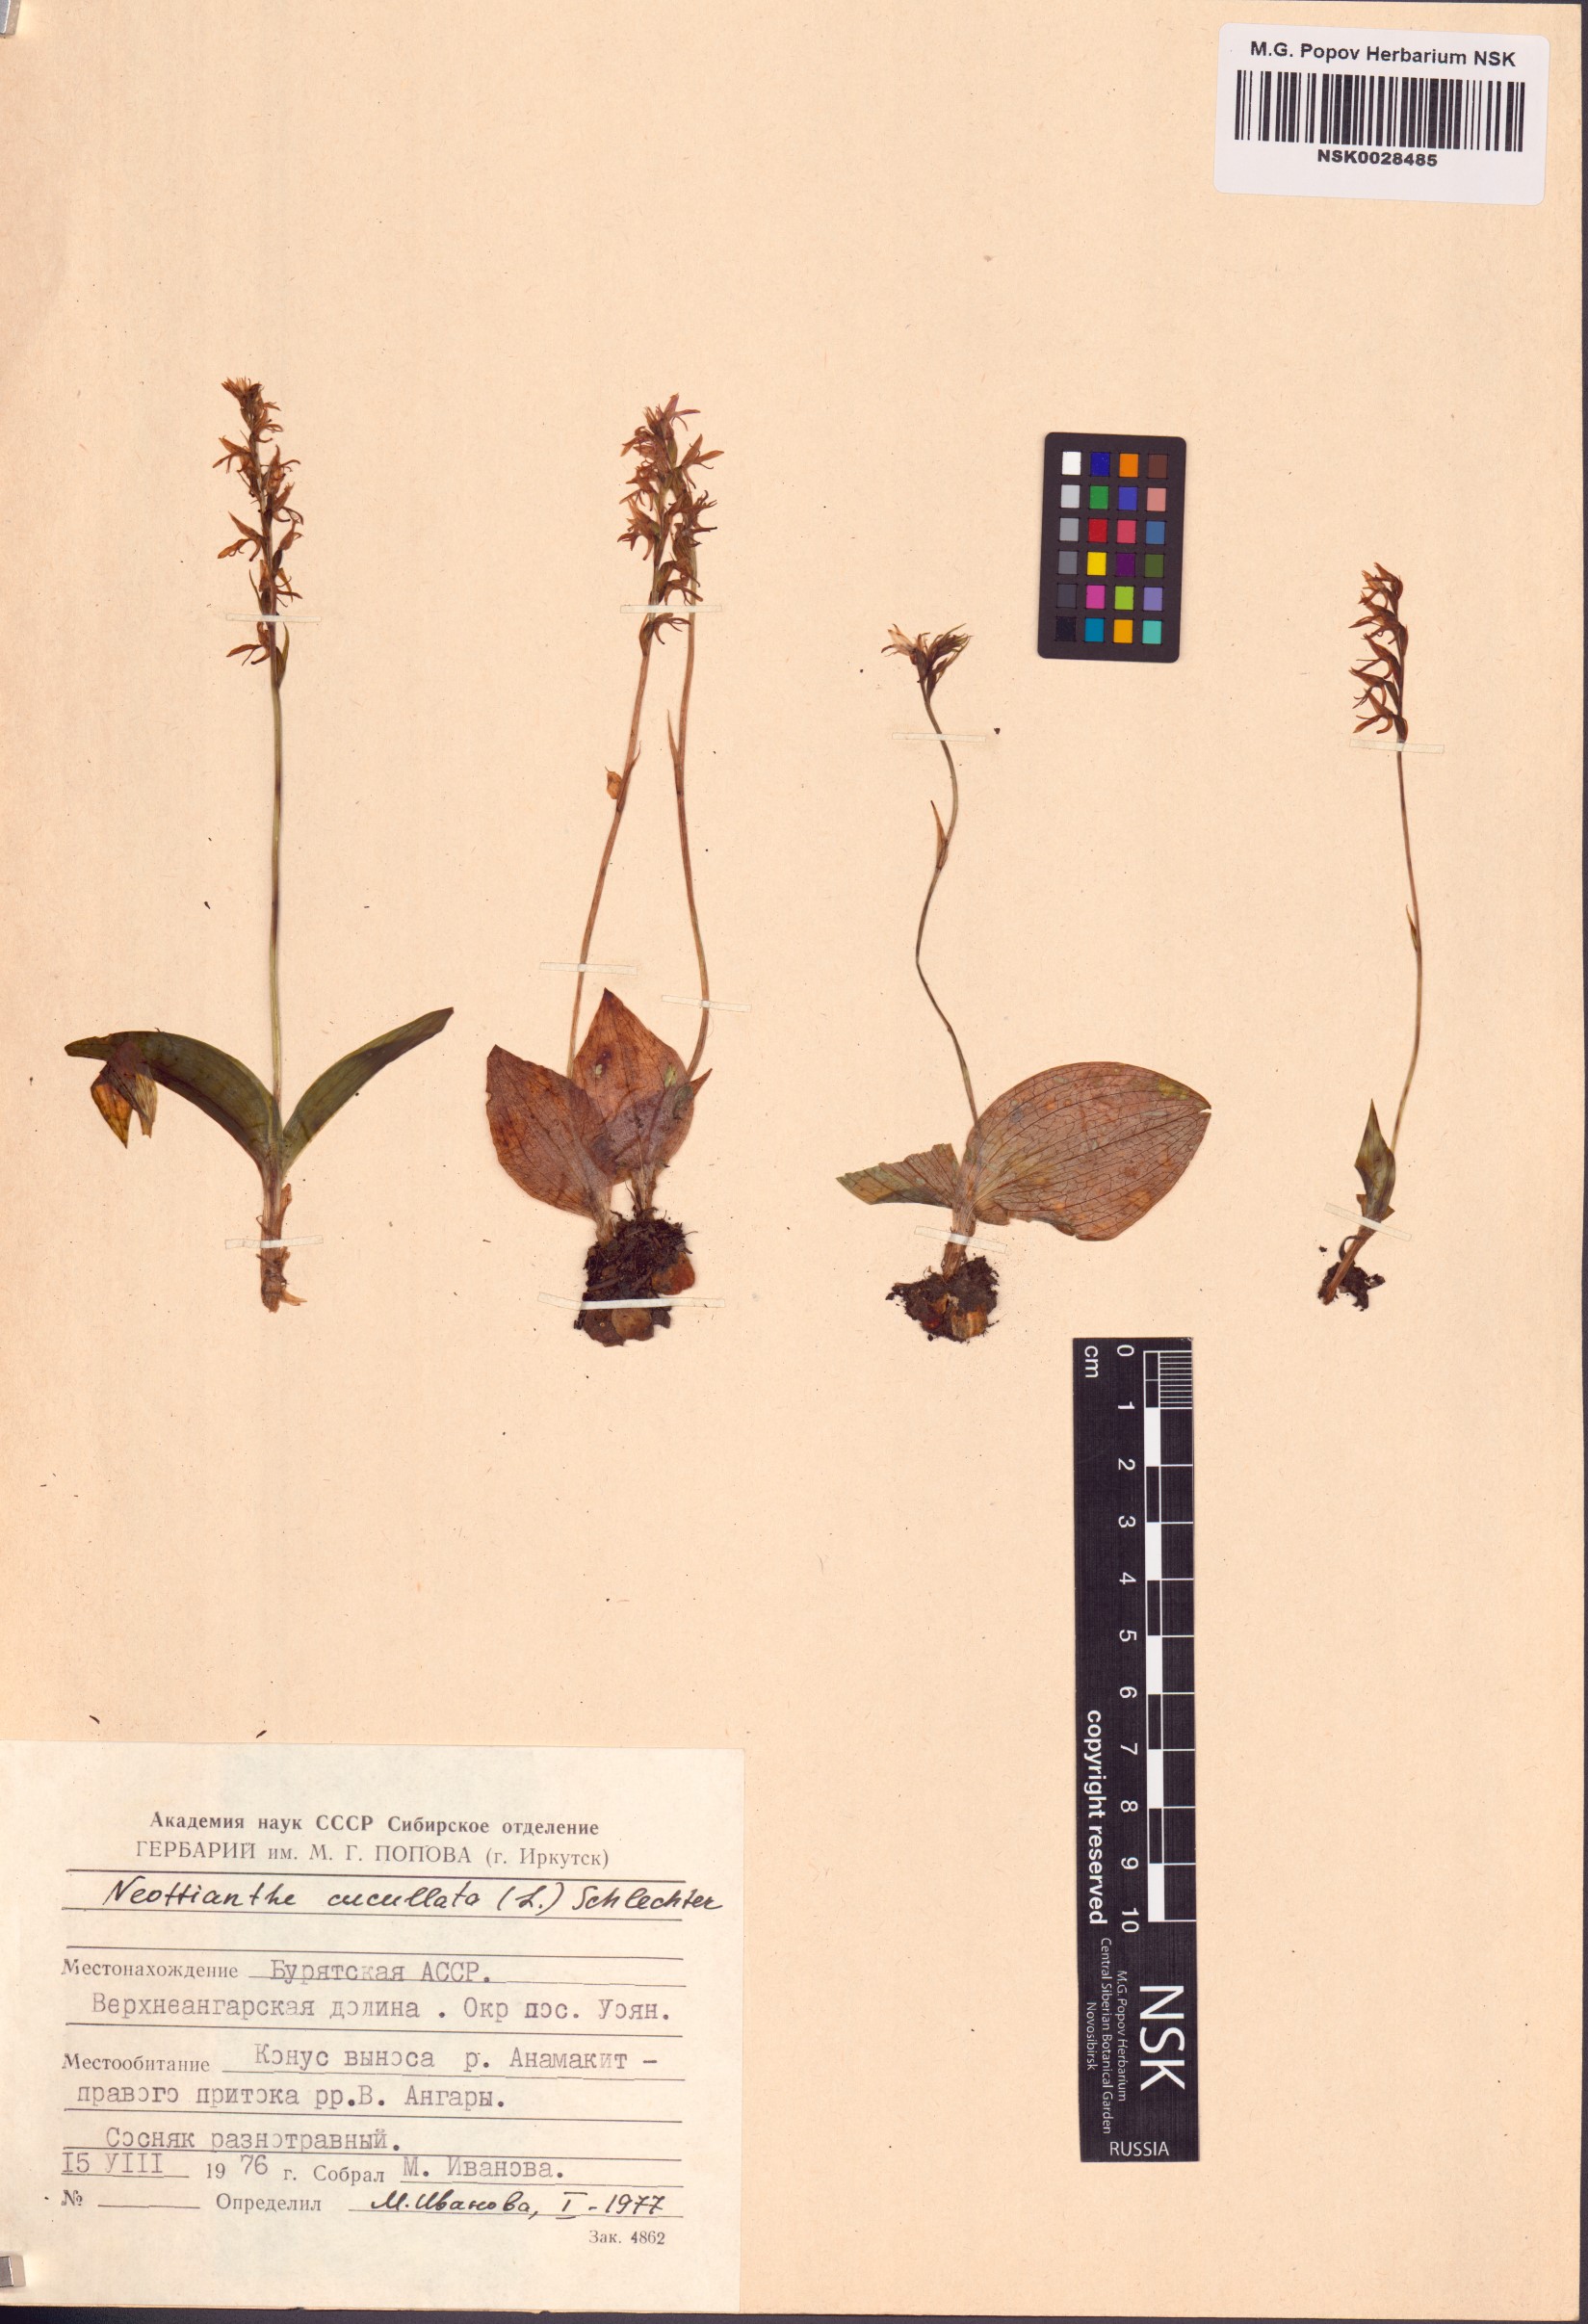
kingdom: Plantae
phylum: Tracheophyta
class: Liliopsida
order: Asparagales
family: Orchidaceae
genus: Hemipilia
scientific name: Hemipilia cucullata
